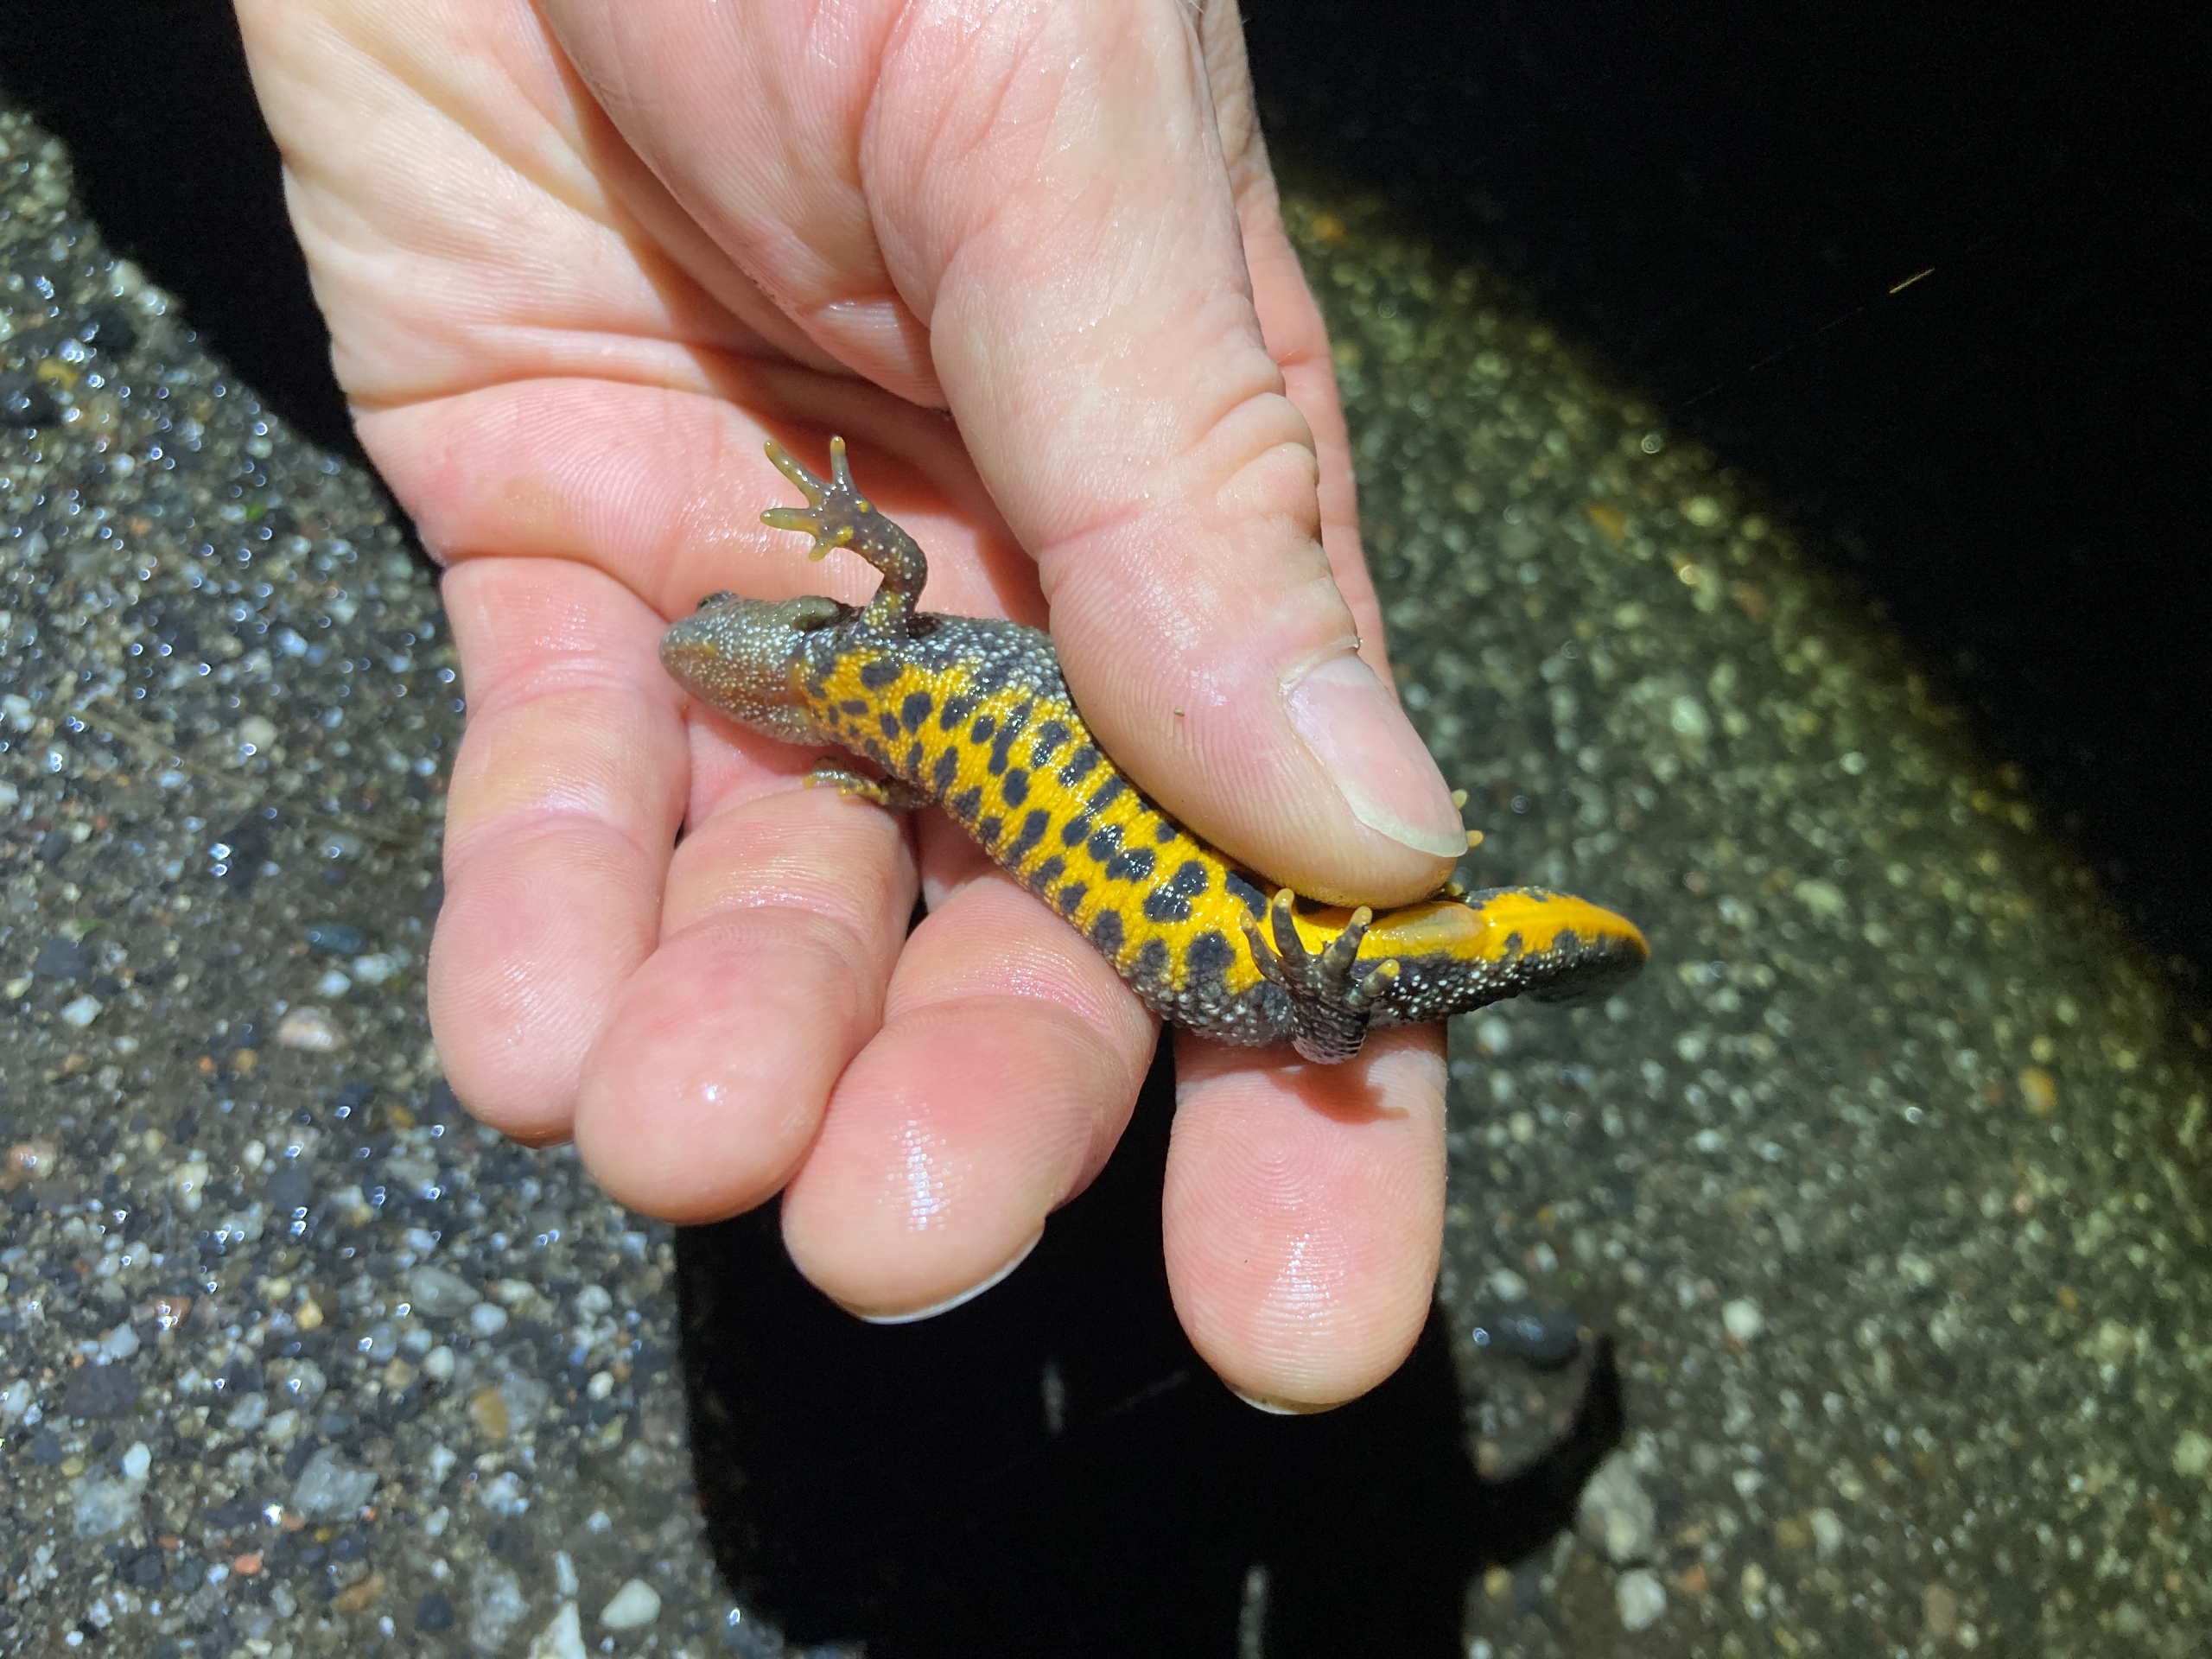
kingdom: Animalia
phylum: Chordata
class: Amphibia
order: Caudata
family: Salamandridae
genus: Triturus
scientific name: Triturus cristatus
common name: Stor vandsalamander
